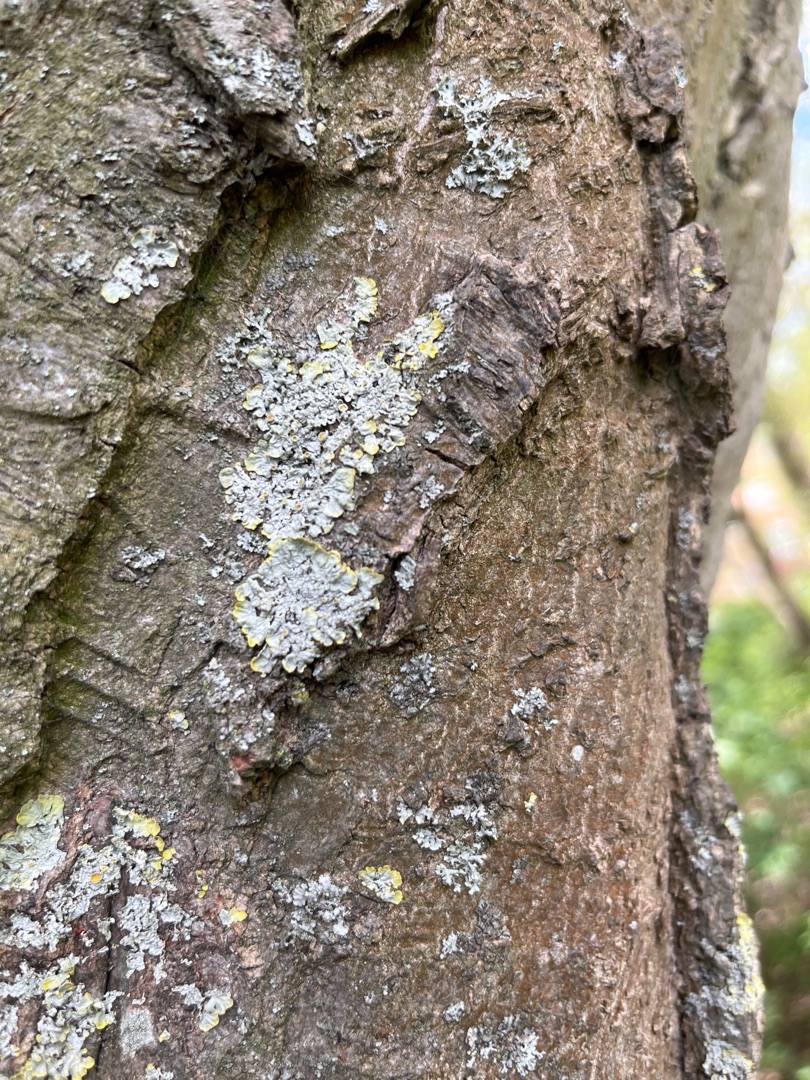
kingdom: Fungi
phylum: Ascomycota
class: Lecanoromycetes
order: Teloschistales
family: Teloschistaceae
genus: Xanthoria
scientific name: Xanthoria parietina
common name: Almindelig væggelav
